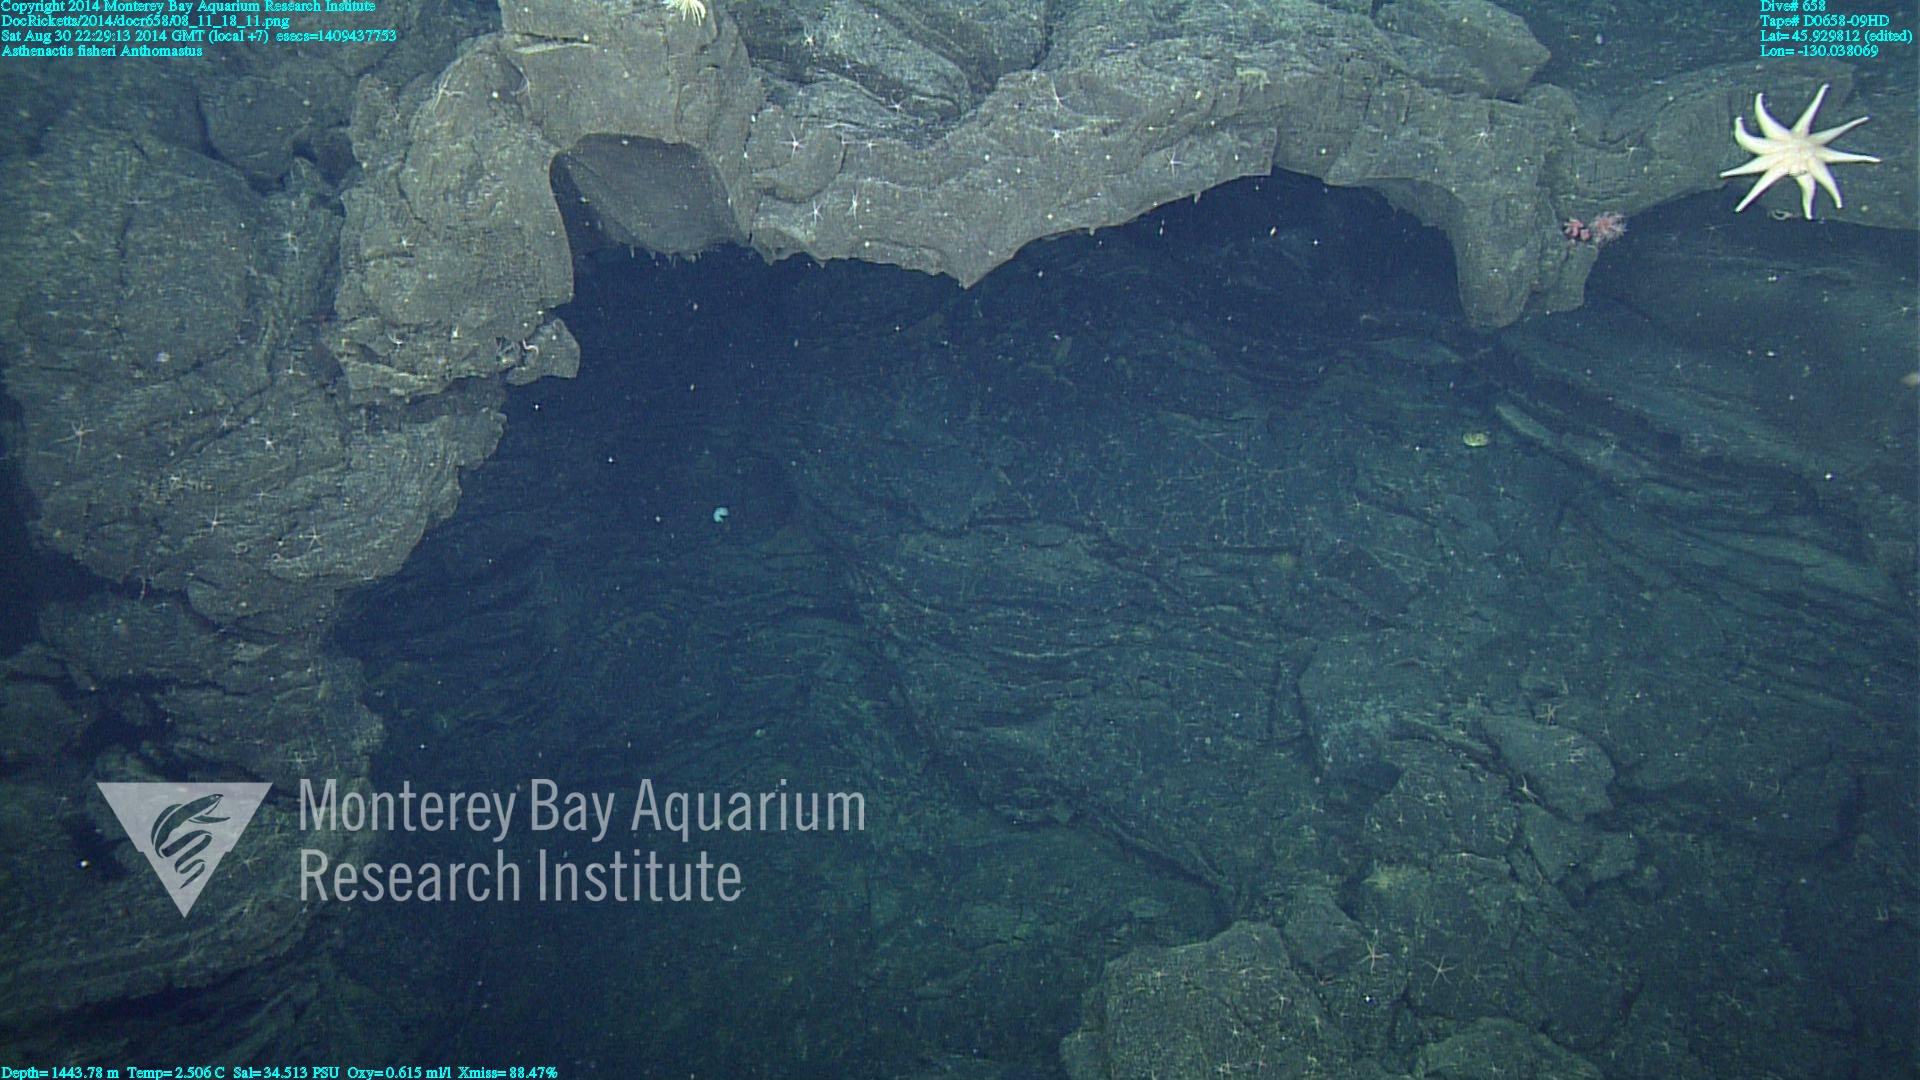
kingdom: Animalia
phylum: Cnidaria
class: Anthozoa
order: Scleralcyonacea
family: Coralliidae
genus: Heteropolypus
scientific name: Heteropolypus
